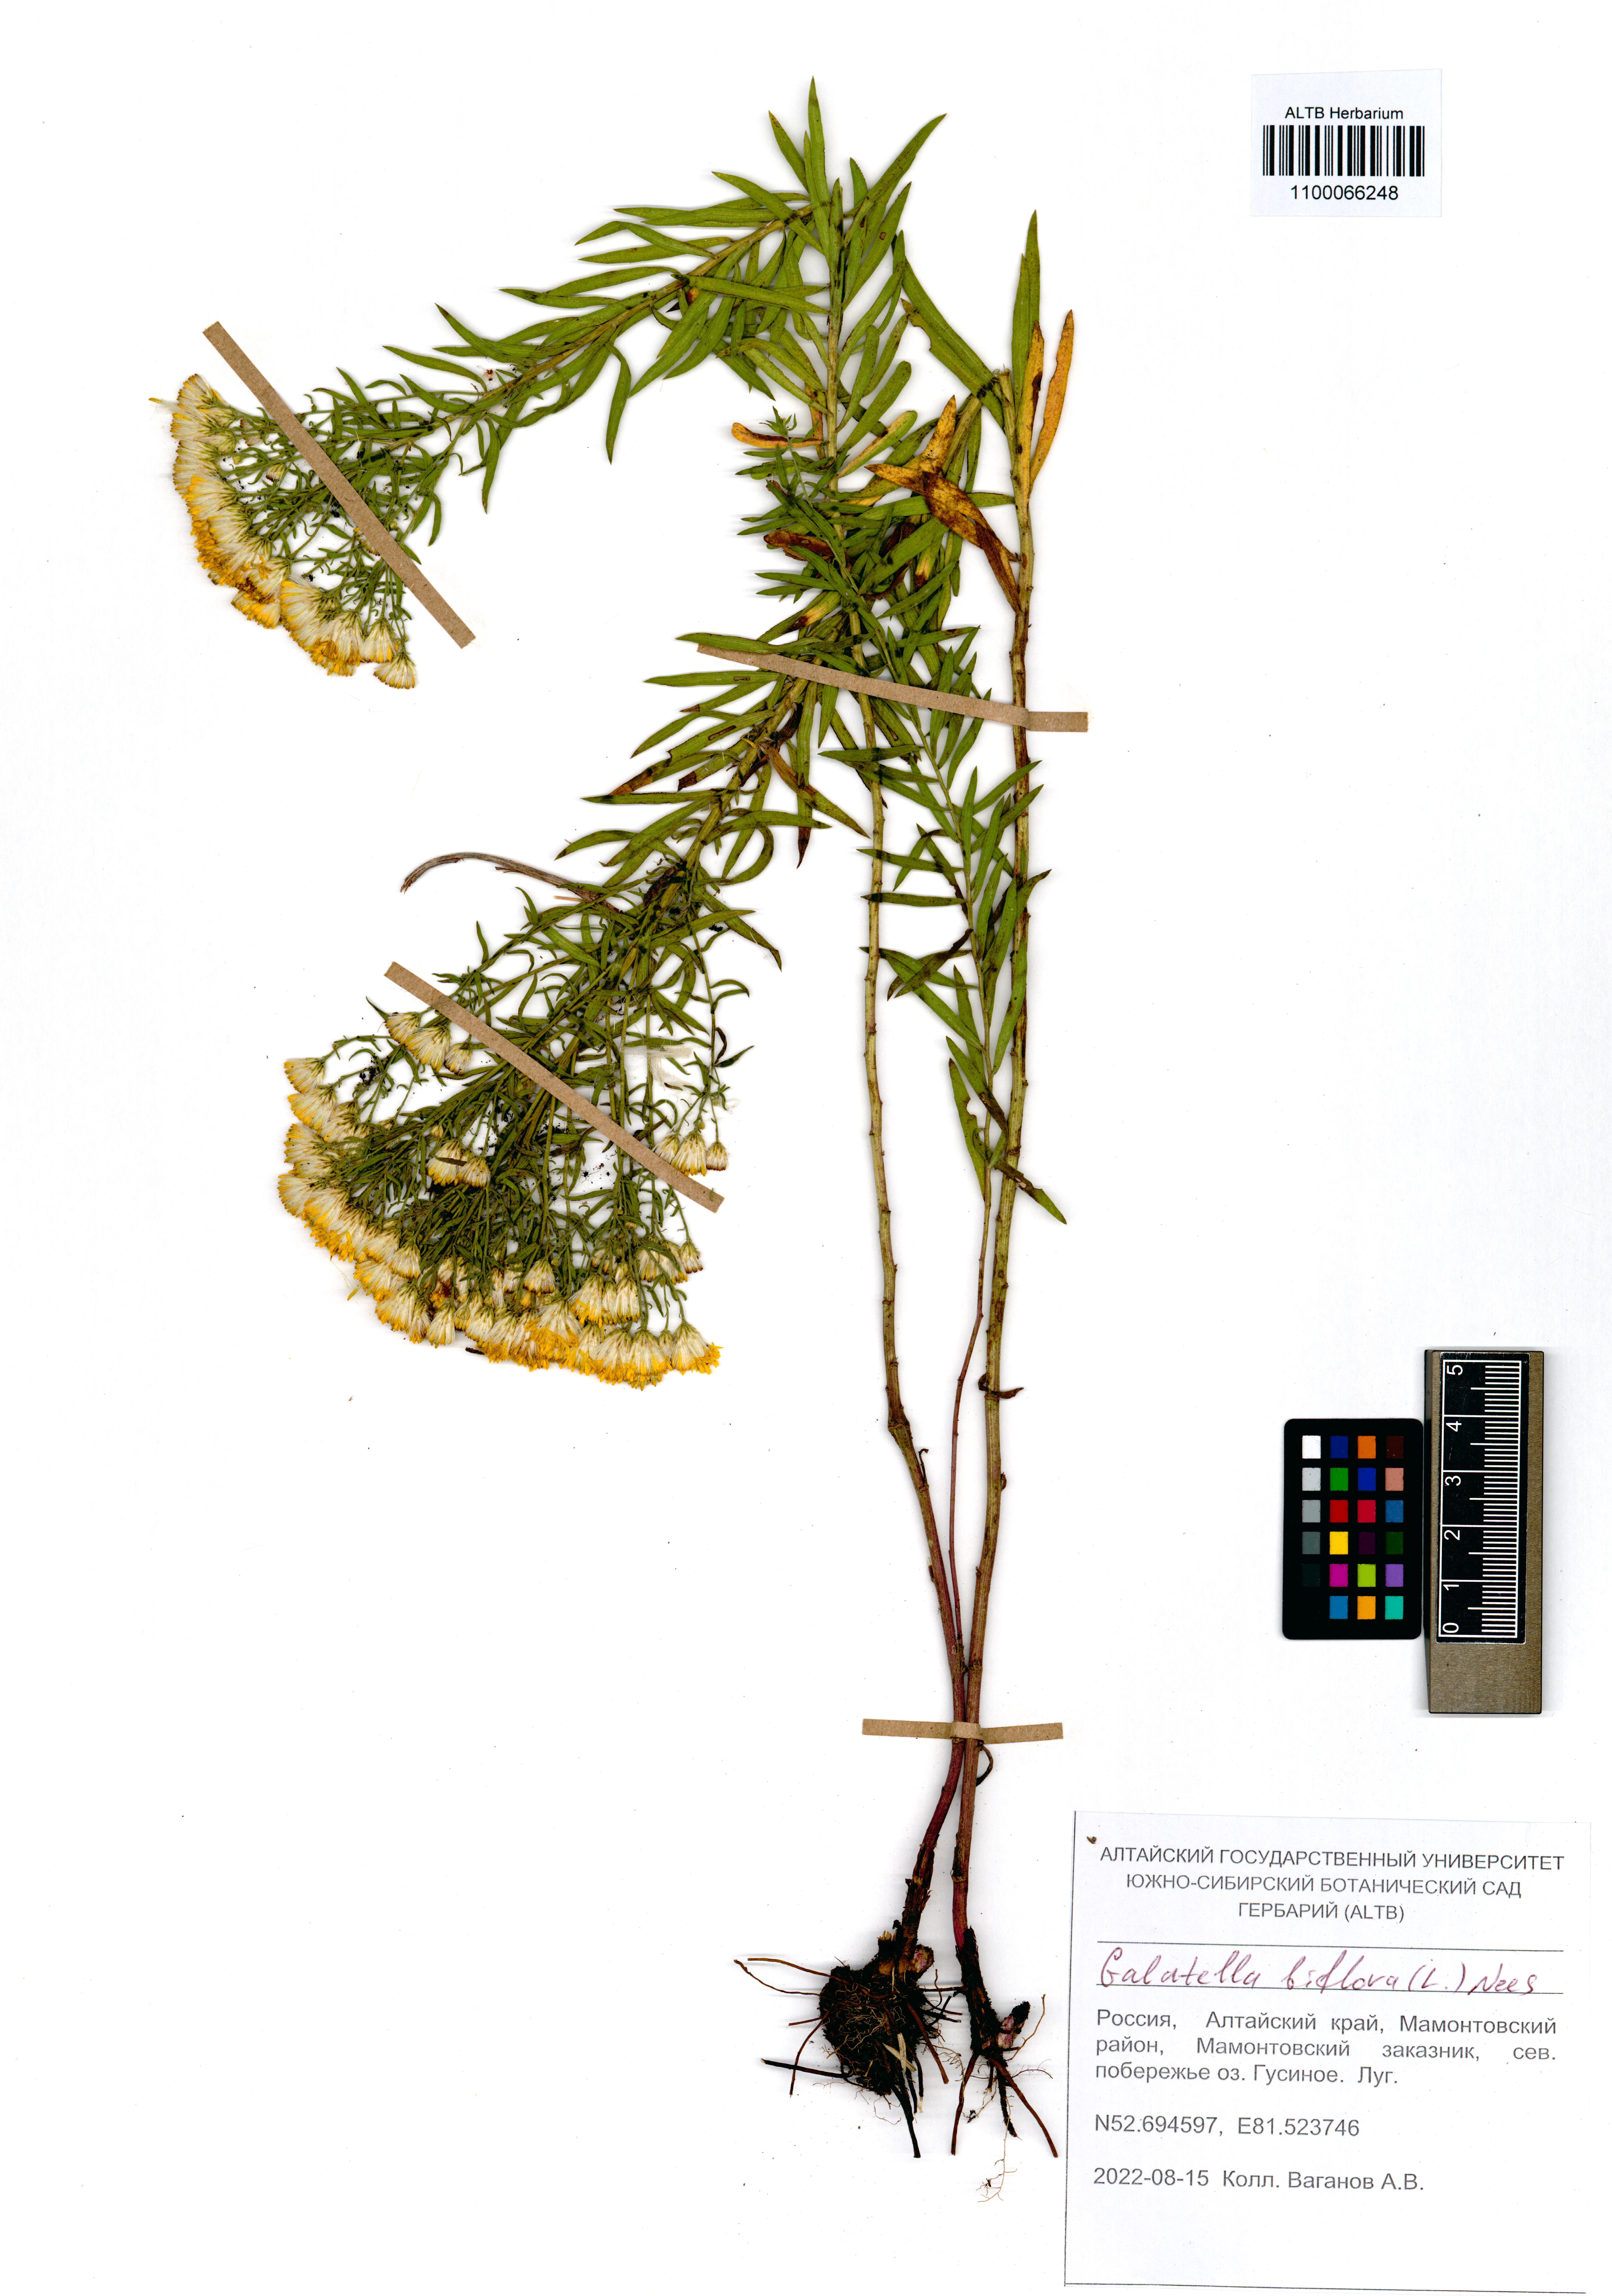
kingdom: Plantae
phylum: Tracheophyta
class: Magnoliopsida
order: Asterales
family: Asteraceae
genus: Galatella
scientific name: Galatella biflora
